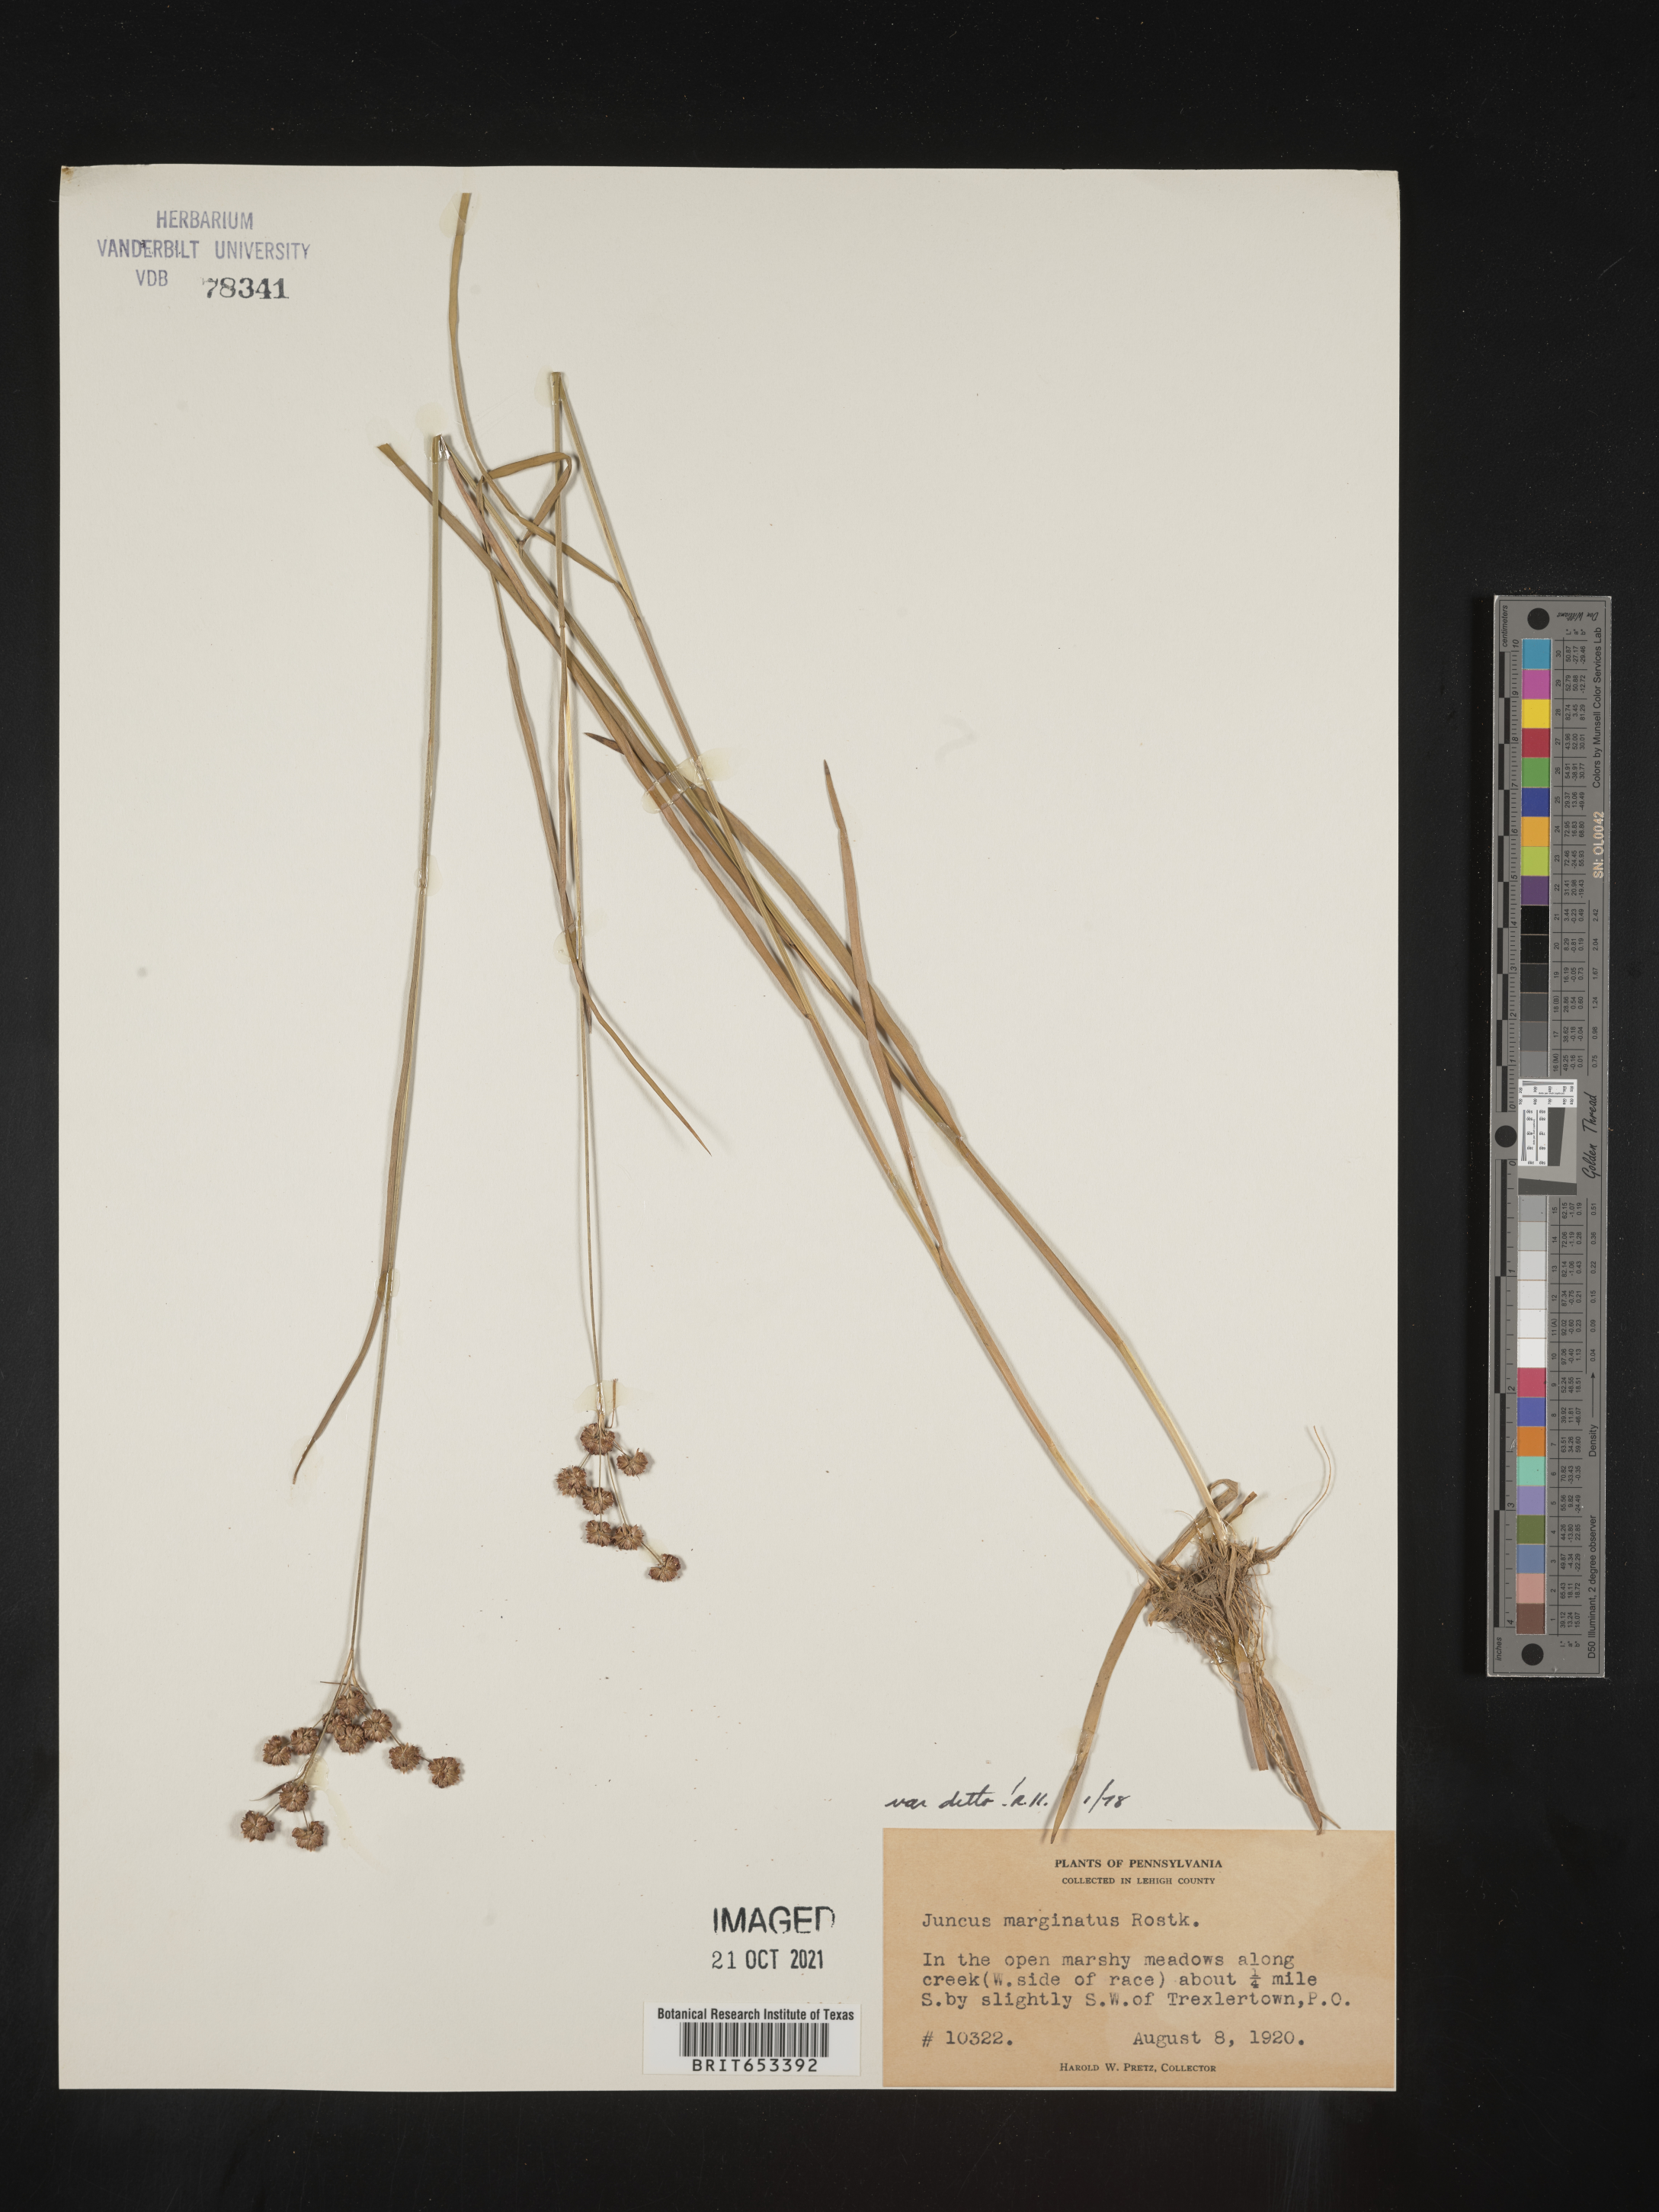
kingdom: Plantae
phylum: Tracheophyta
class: Liliopsida
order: Poales
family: Juncaceae
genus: Juncus
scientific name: Juncus marginatus
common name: Grass-leaf rush
